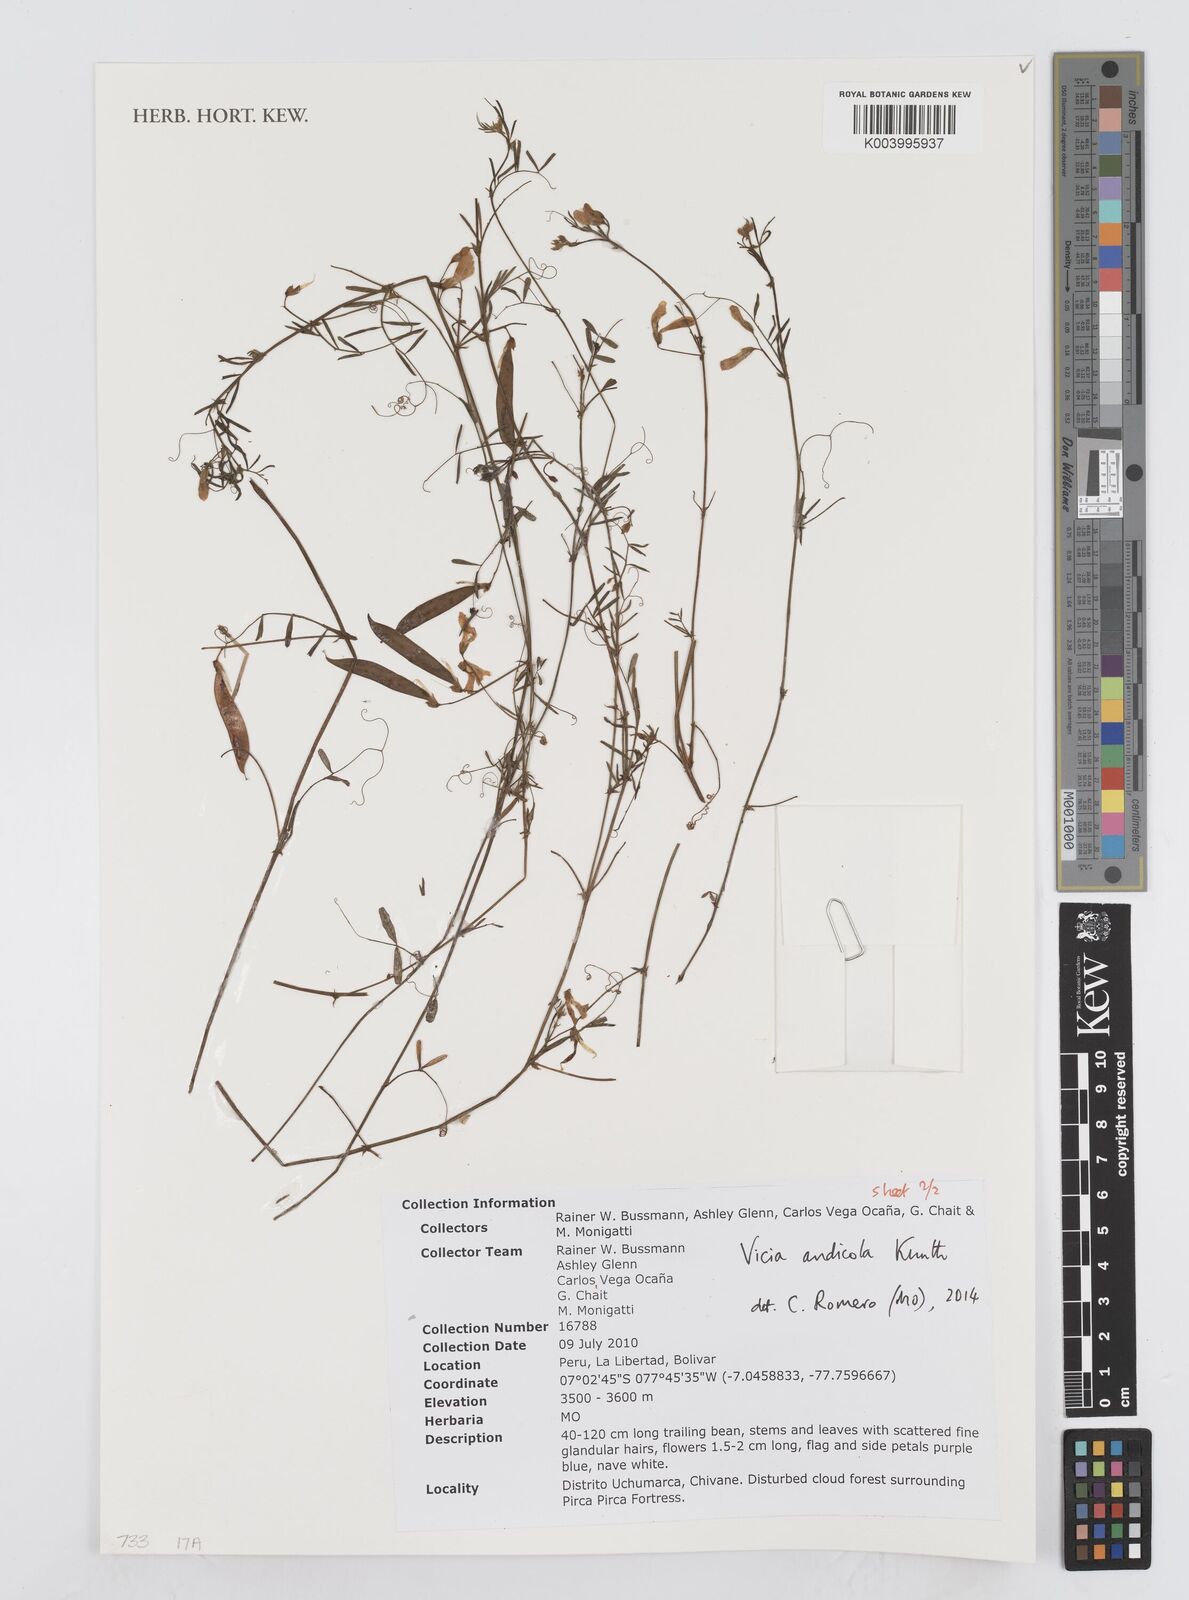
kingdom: Plantae
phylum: Tracheophyta
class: Magnoliopsida
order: Fabales
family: Fabaceae
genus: Vicia
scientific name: Vicia andicola
